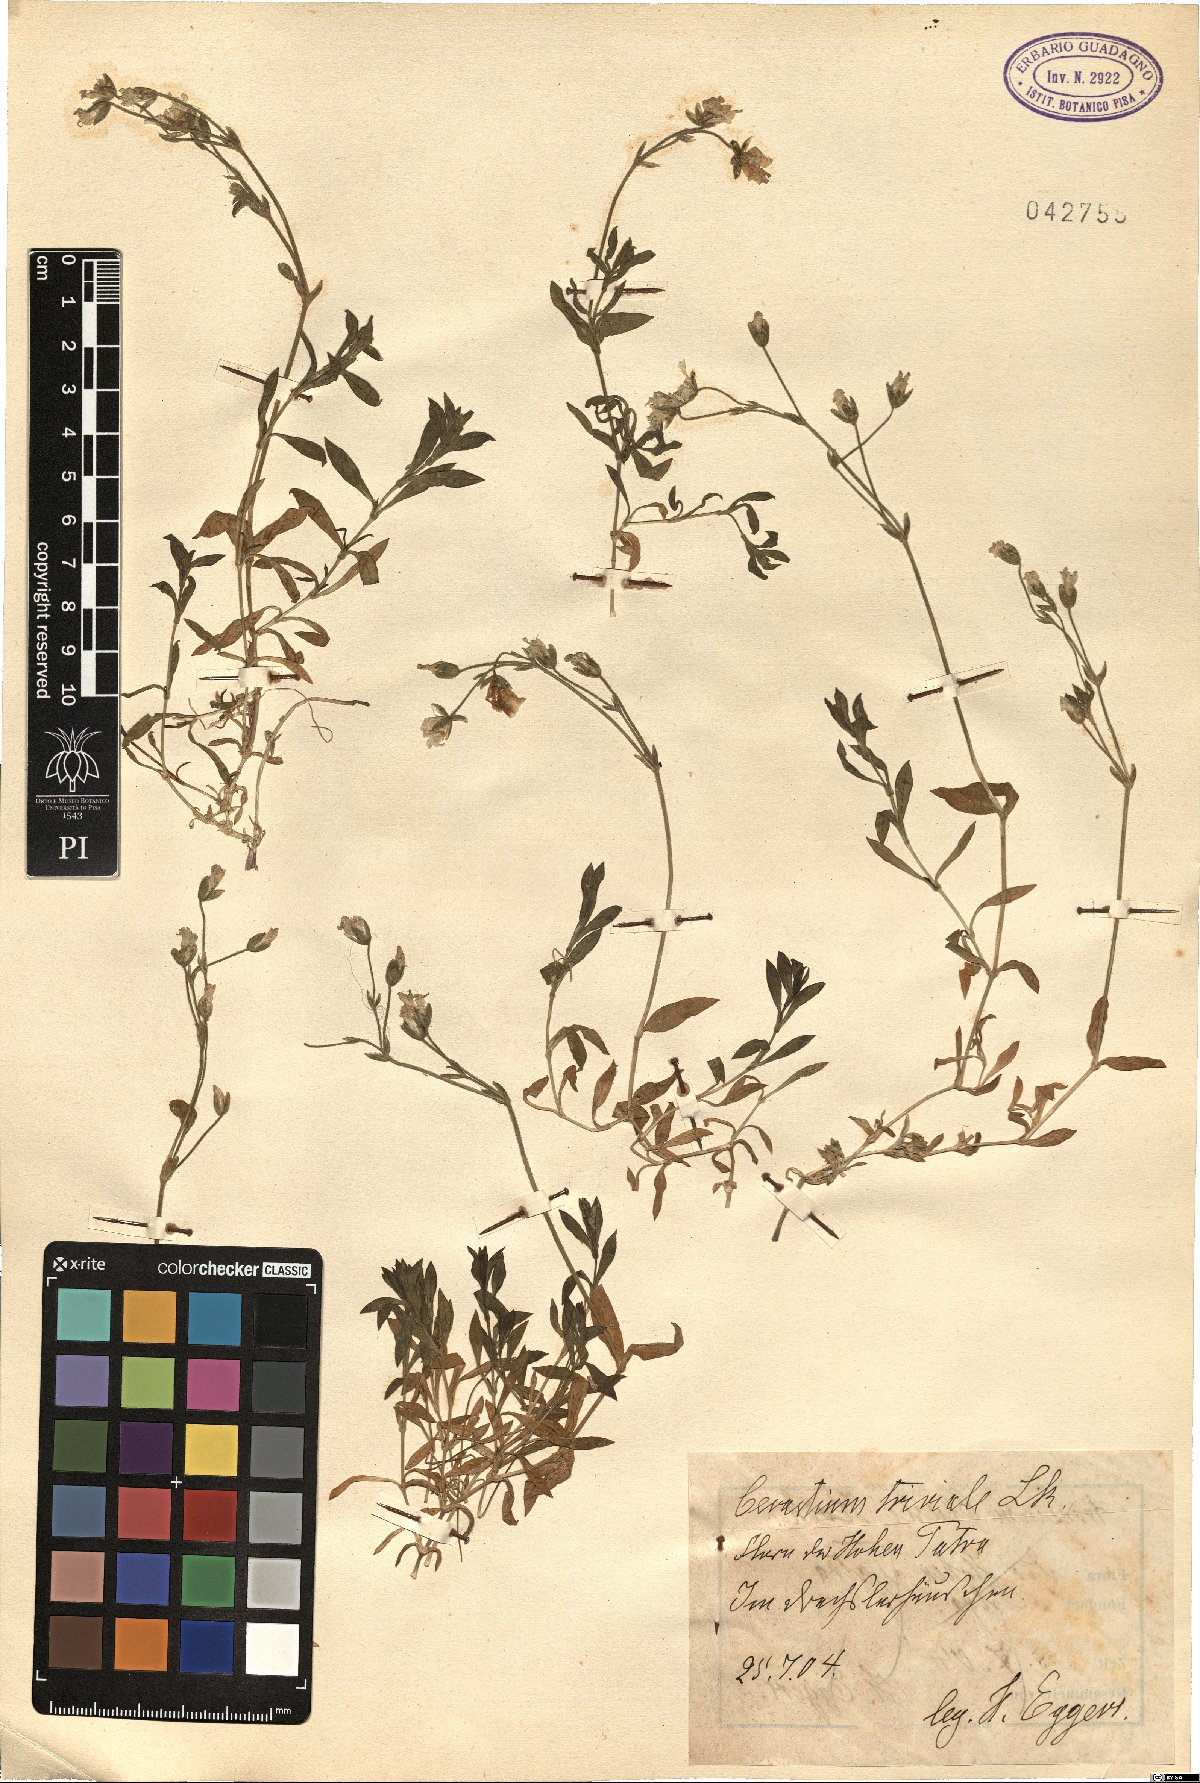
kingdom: Plantae
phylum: Tracheophyta
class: Magnoliopsida
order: Caryophyllales
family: Caryophyllaceae
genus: Cerastium
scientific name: Cerastium glomeratum
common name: Sticky chickweed
